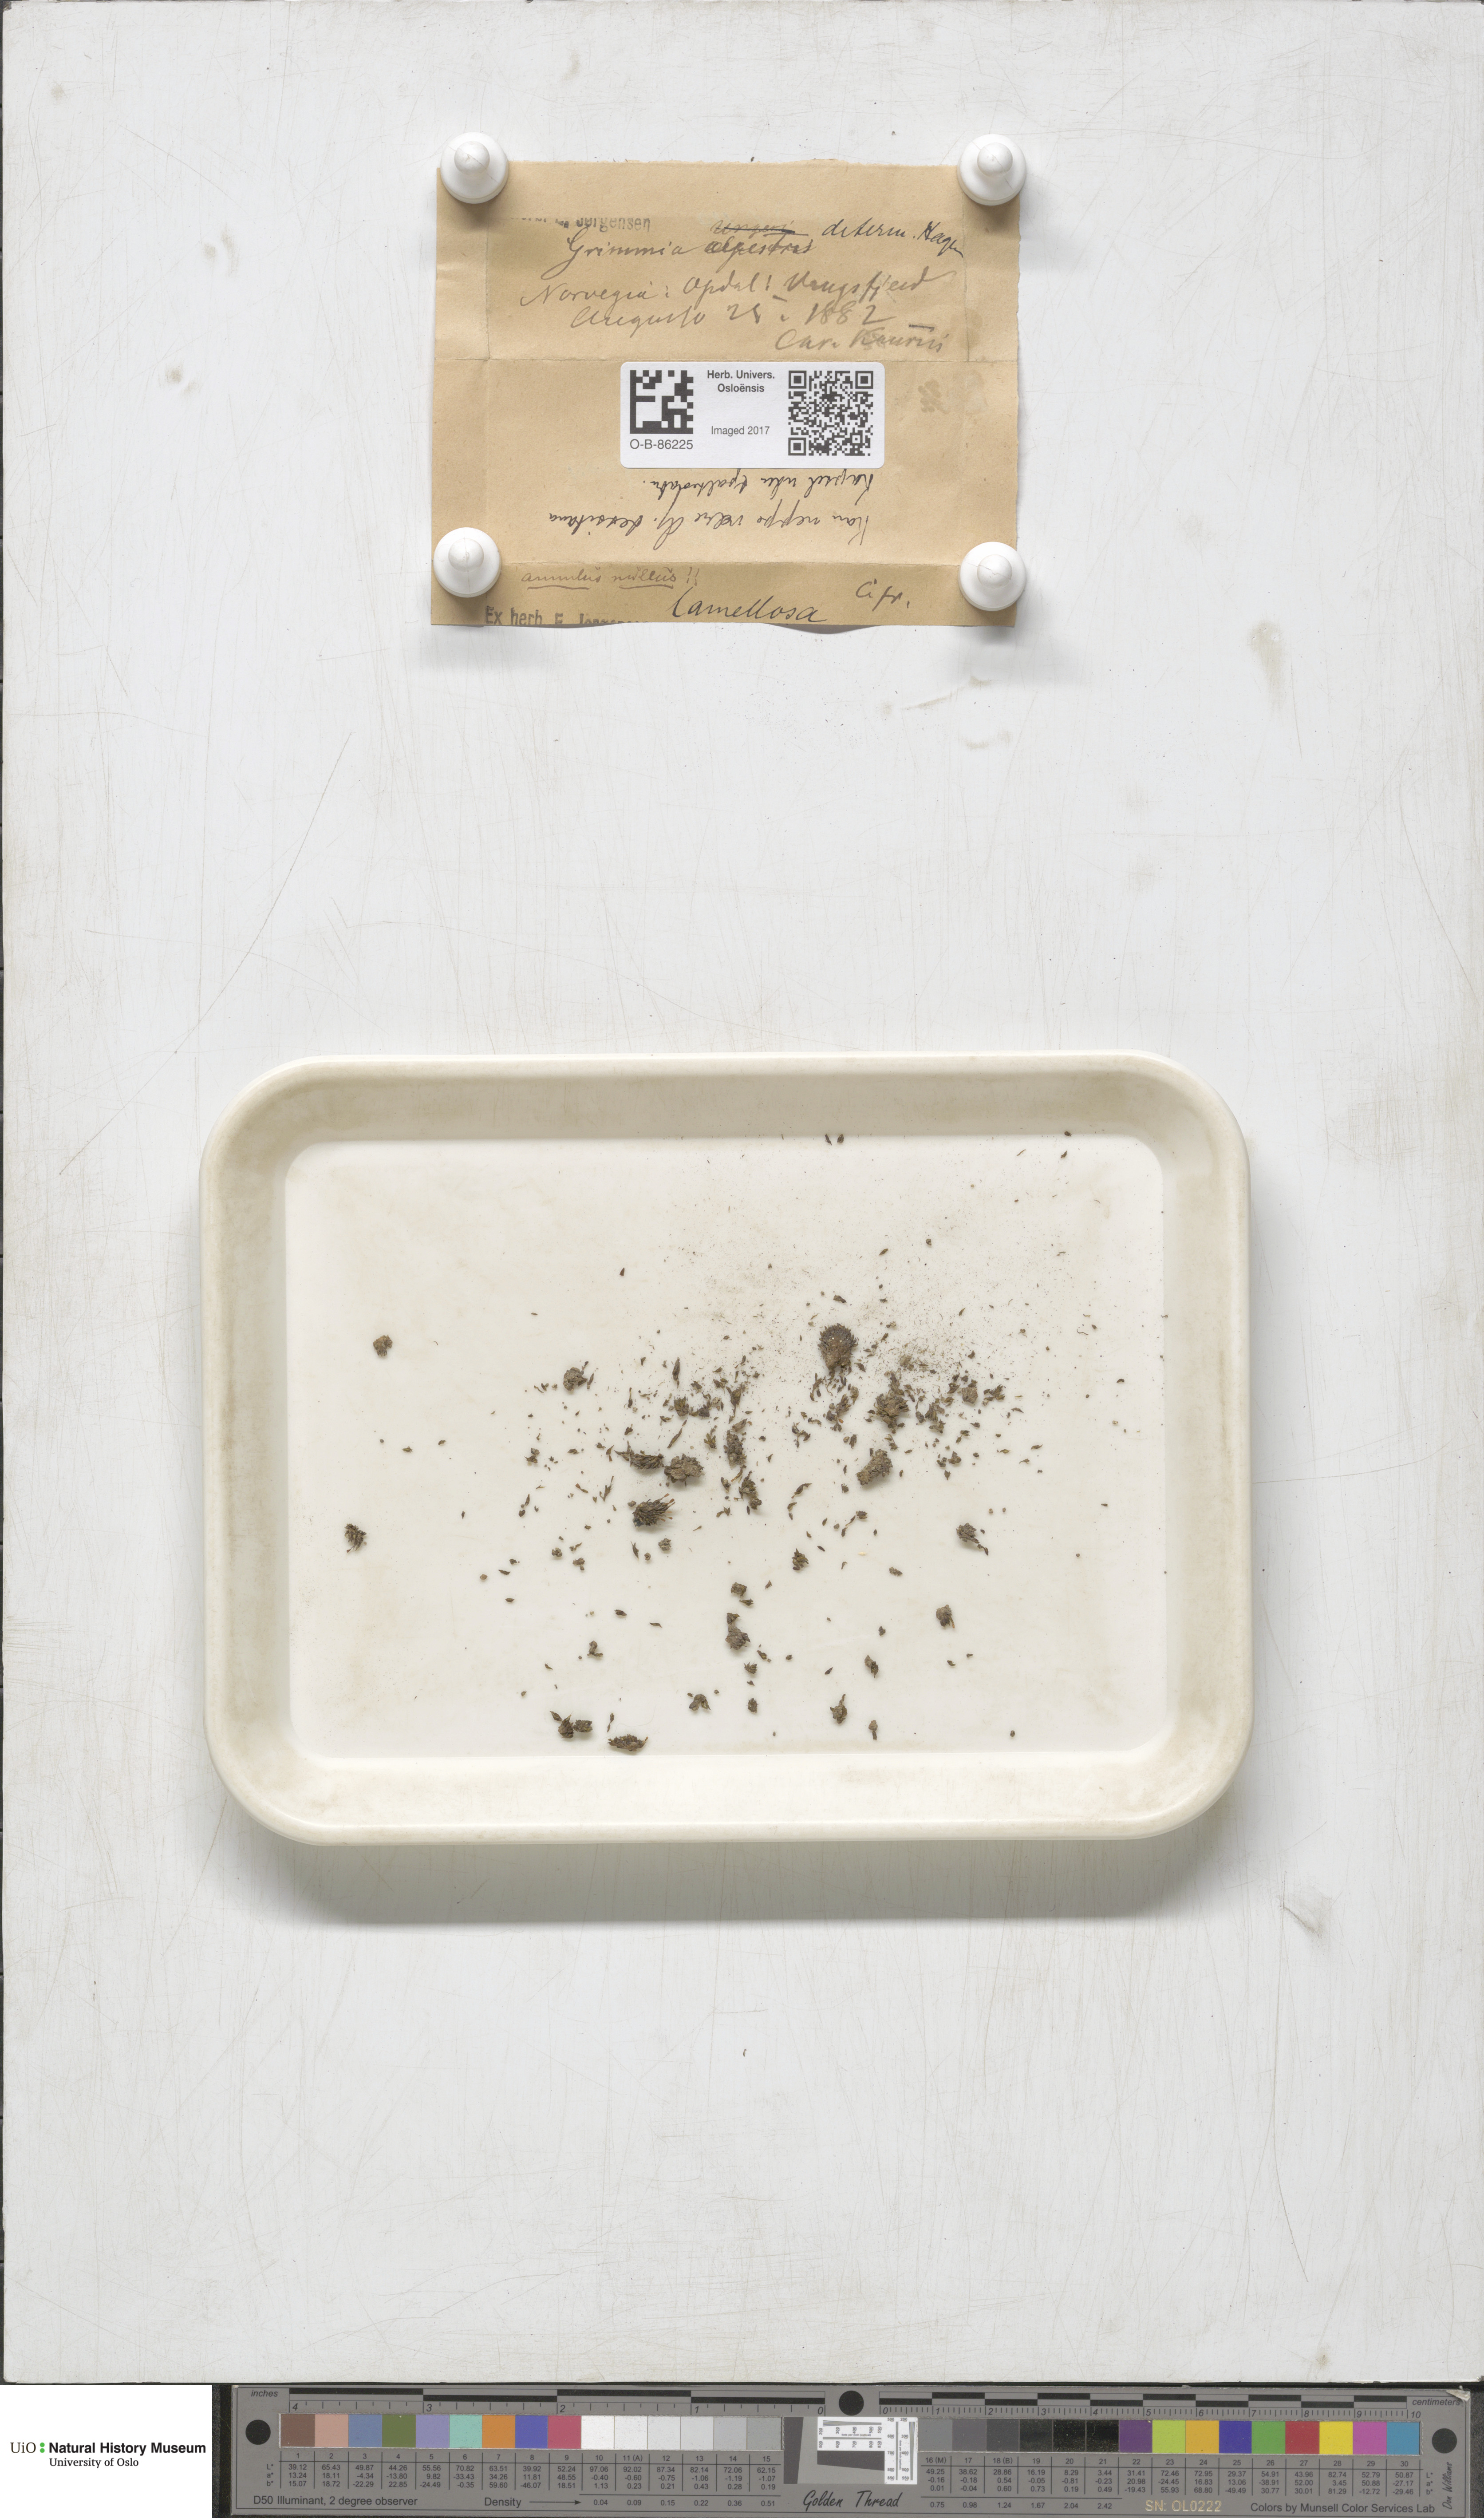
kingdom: Plantae
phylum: Bryophyta
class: Bryopsida
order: Grimmiales
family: Grimmiaceae
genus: Grimmia
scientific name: Grimmia donniana
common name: Donn's grimmia
